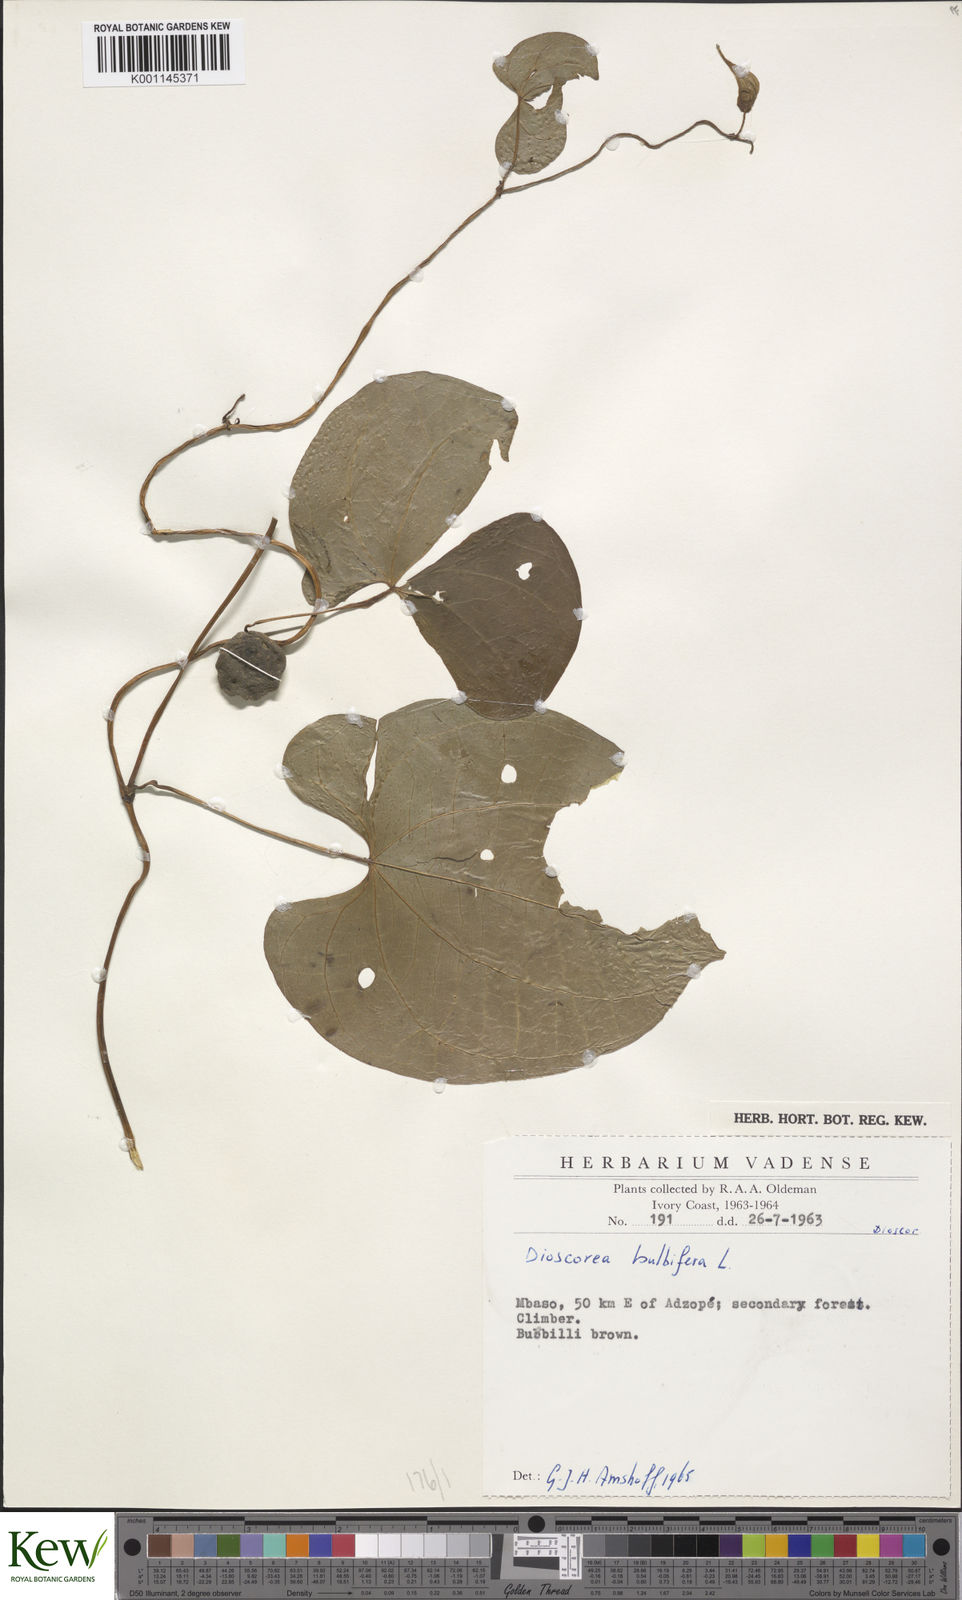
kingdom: Plantae
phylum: Tracheophyta
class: Liliopsida
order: Dioscoreales
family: Dioscoreaceae
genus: Dioscorea
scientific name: Dioscorea bulbifera
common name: Air yam
